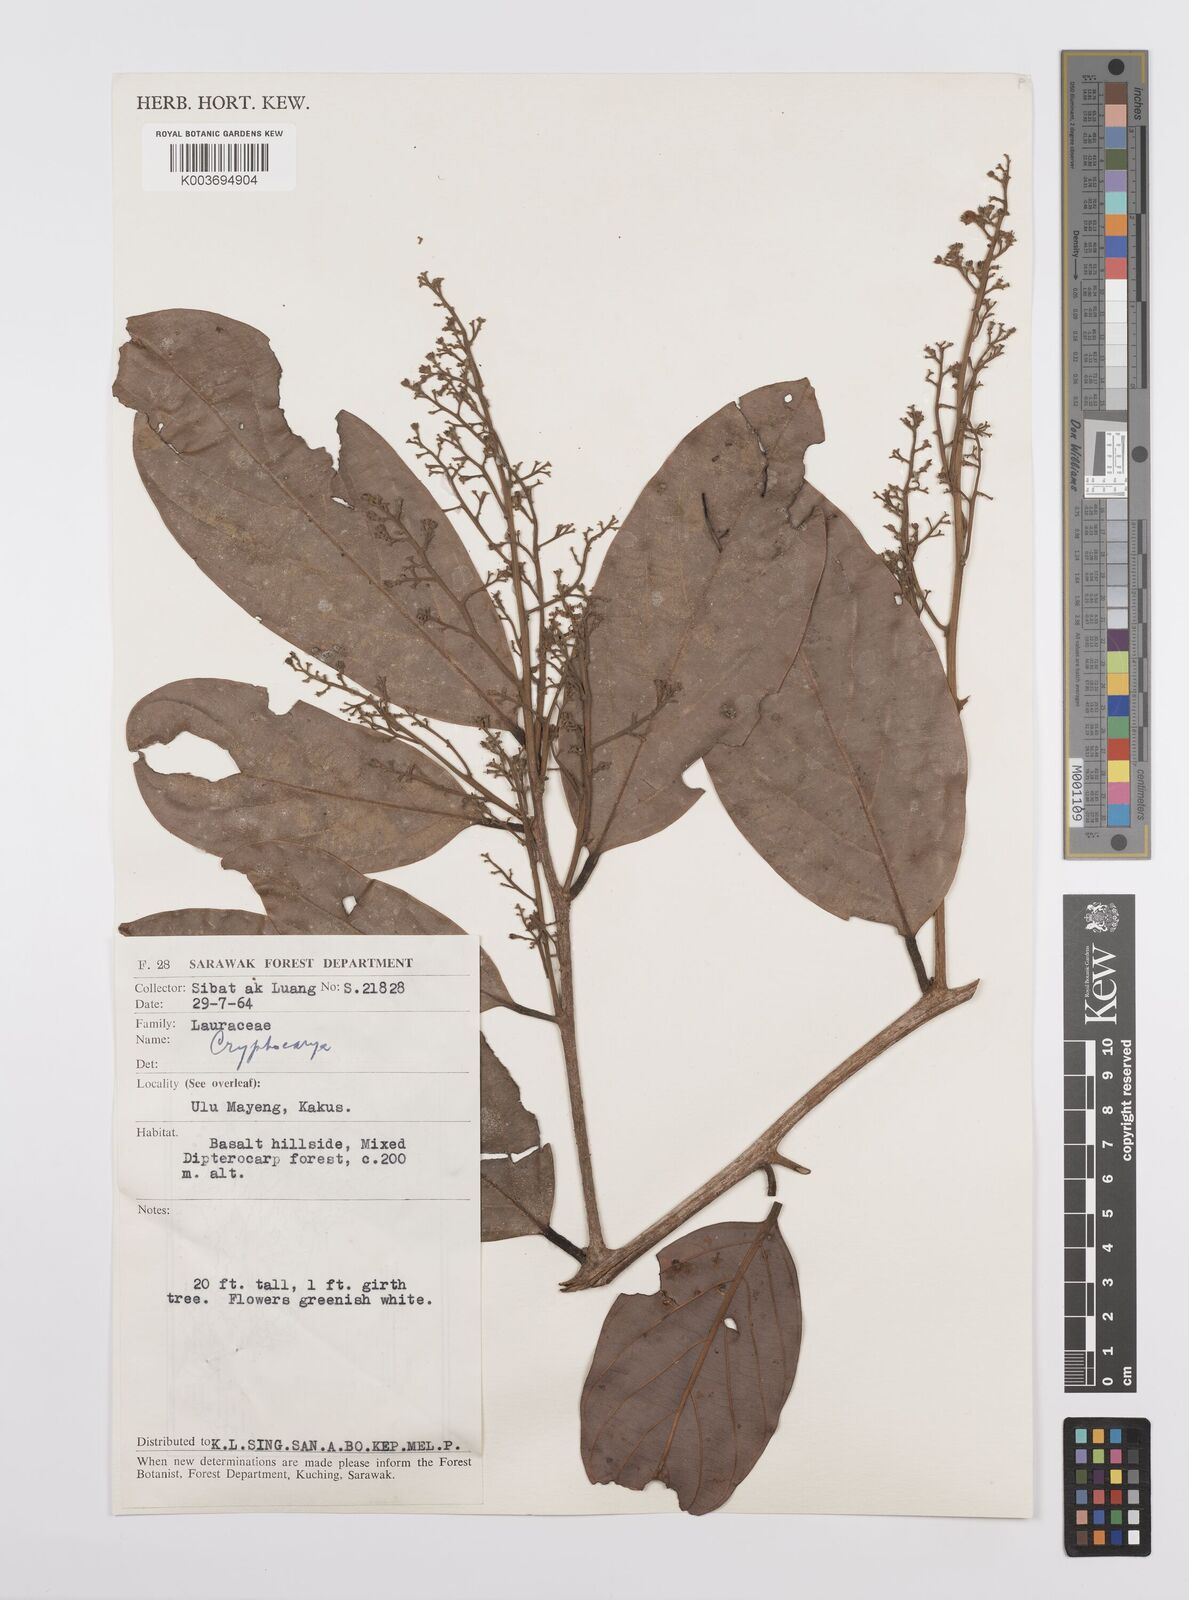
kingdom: Plantae
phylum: Tracheophyta
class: Magnoliopsida
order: Laurales
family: Lauraceae
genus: Cryptocarya
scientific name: Cryptocarya
